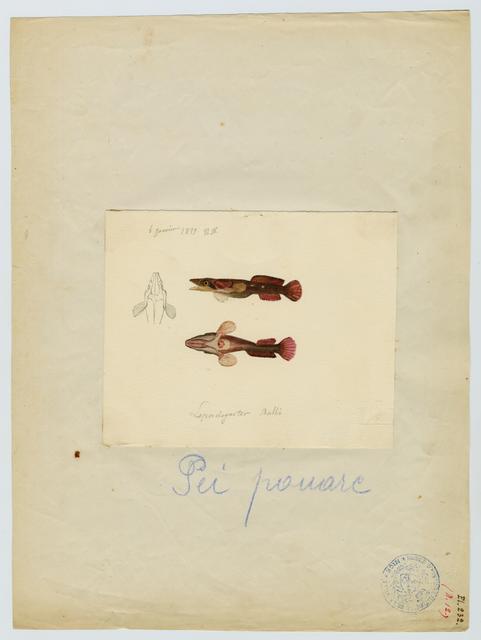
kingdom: Animalia
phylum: Chordata
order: Gobiesociformes
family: Gobiesocidae
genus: Lepadogaster
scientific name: Lepadogaster candolii
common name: Connemarra clingfish
